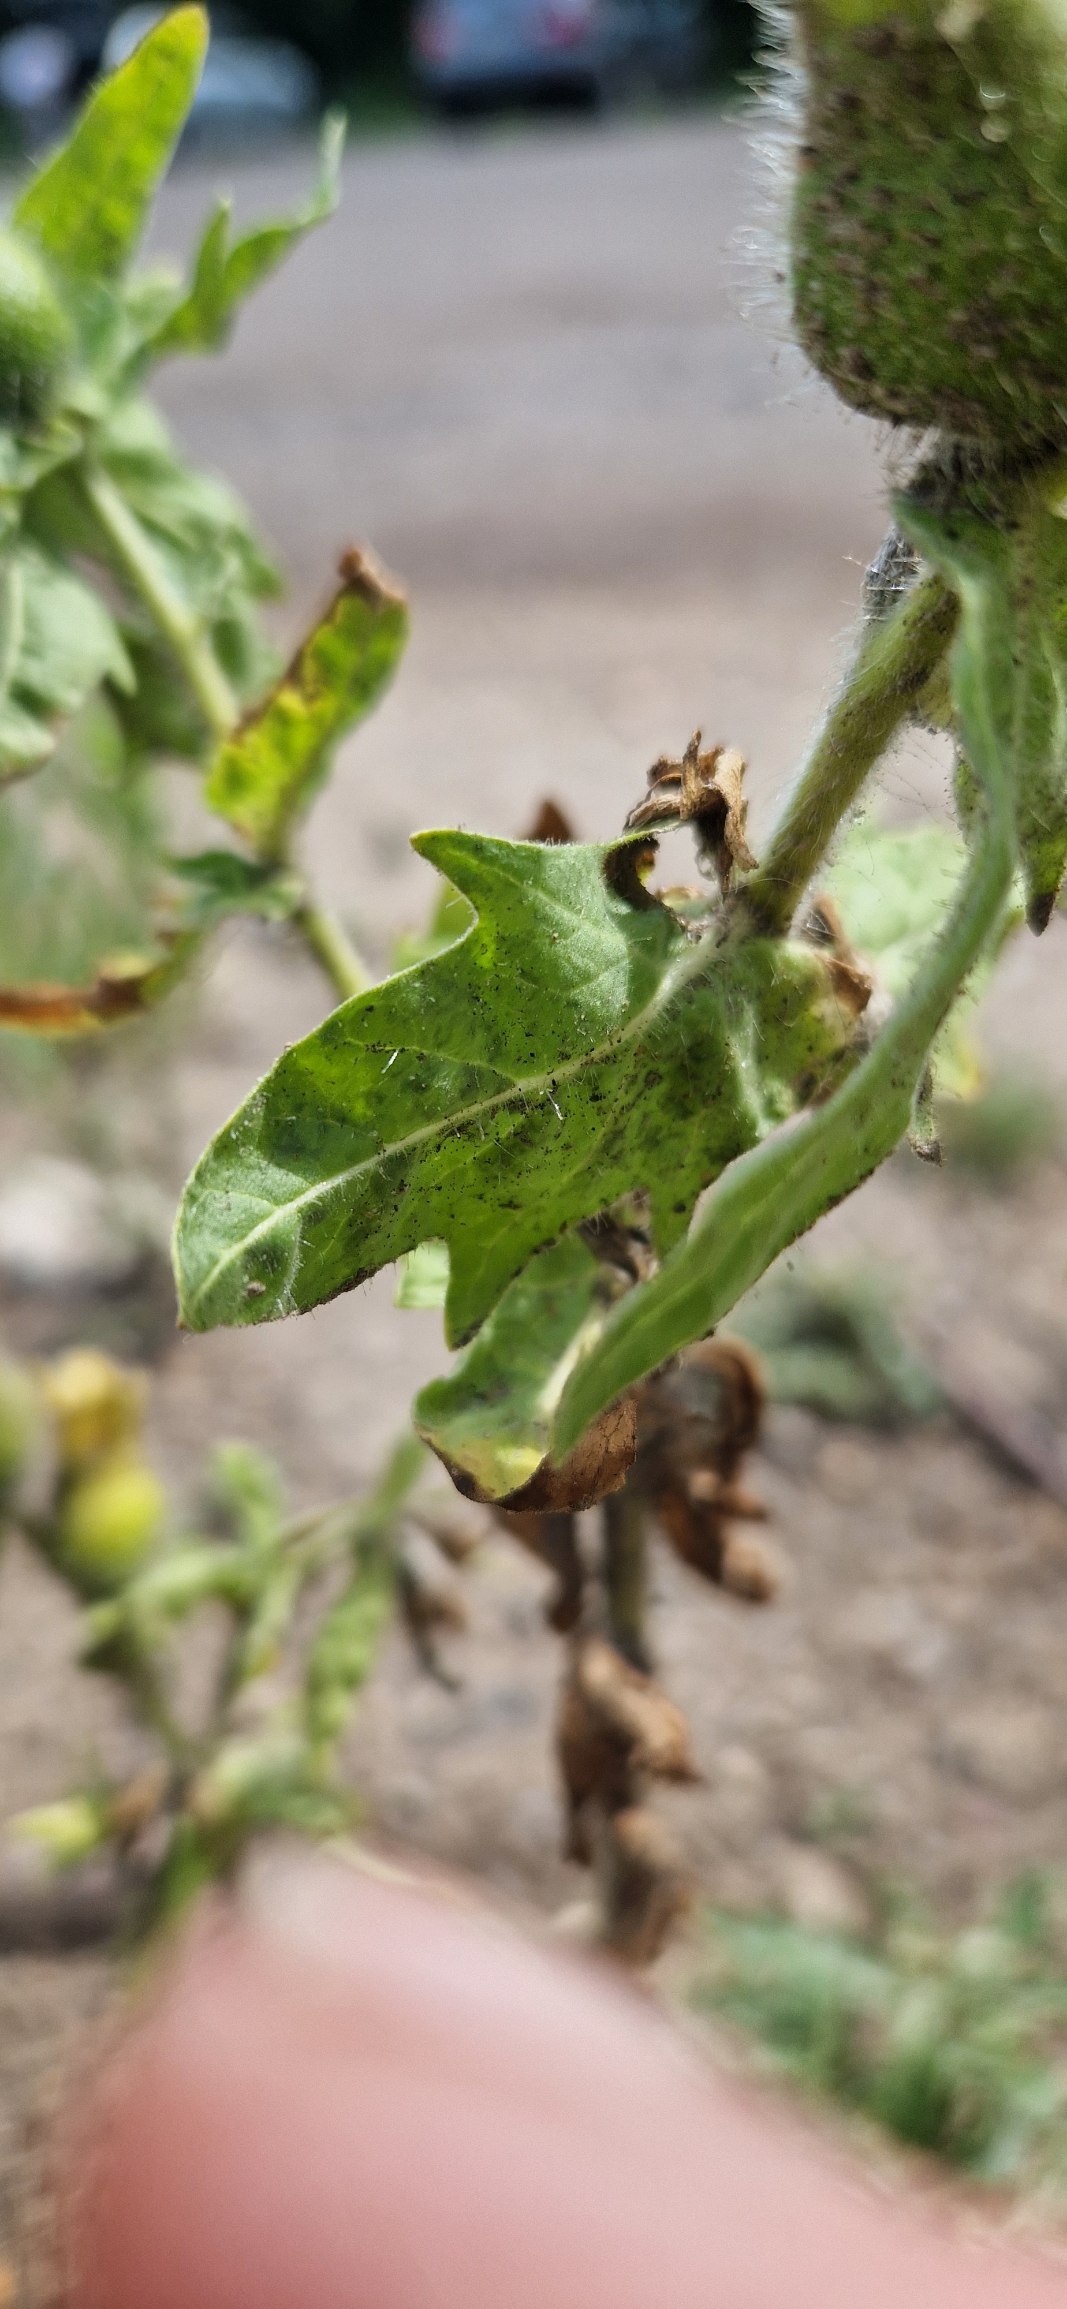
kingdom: Plantae
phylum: Tracheophyta
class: Magnoliopsida
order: Solanales
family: Solanaceae
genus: Hyoscyamus
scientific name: Hyoscyamus niger
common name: Bulmeurt
